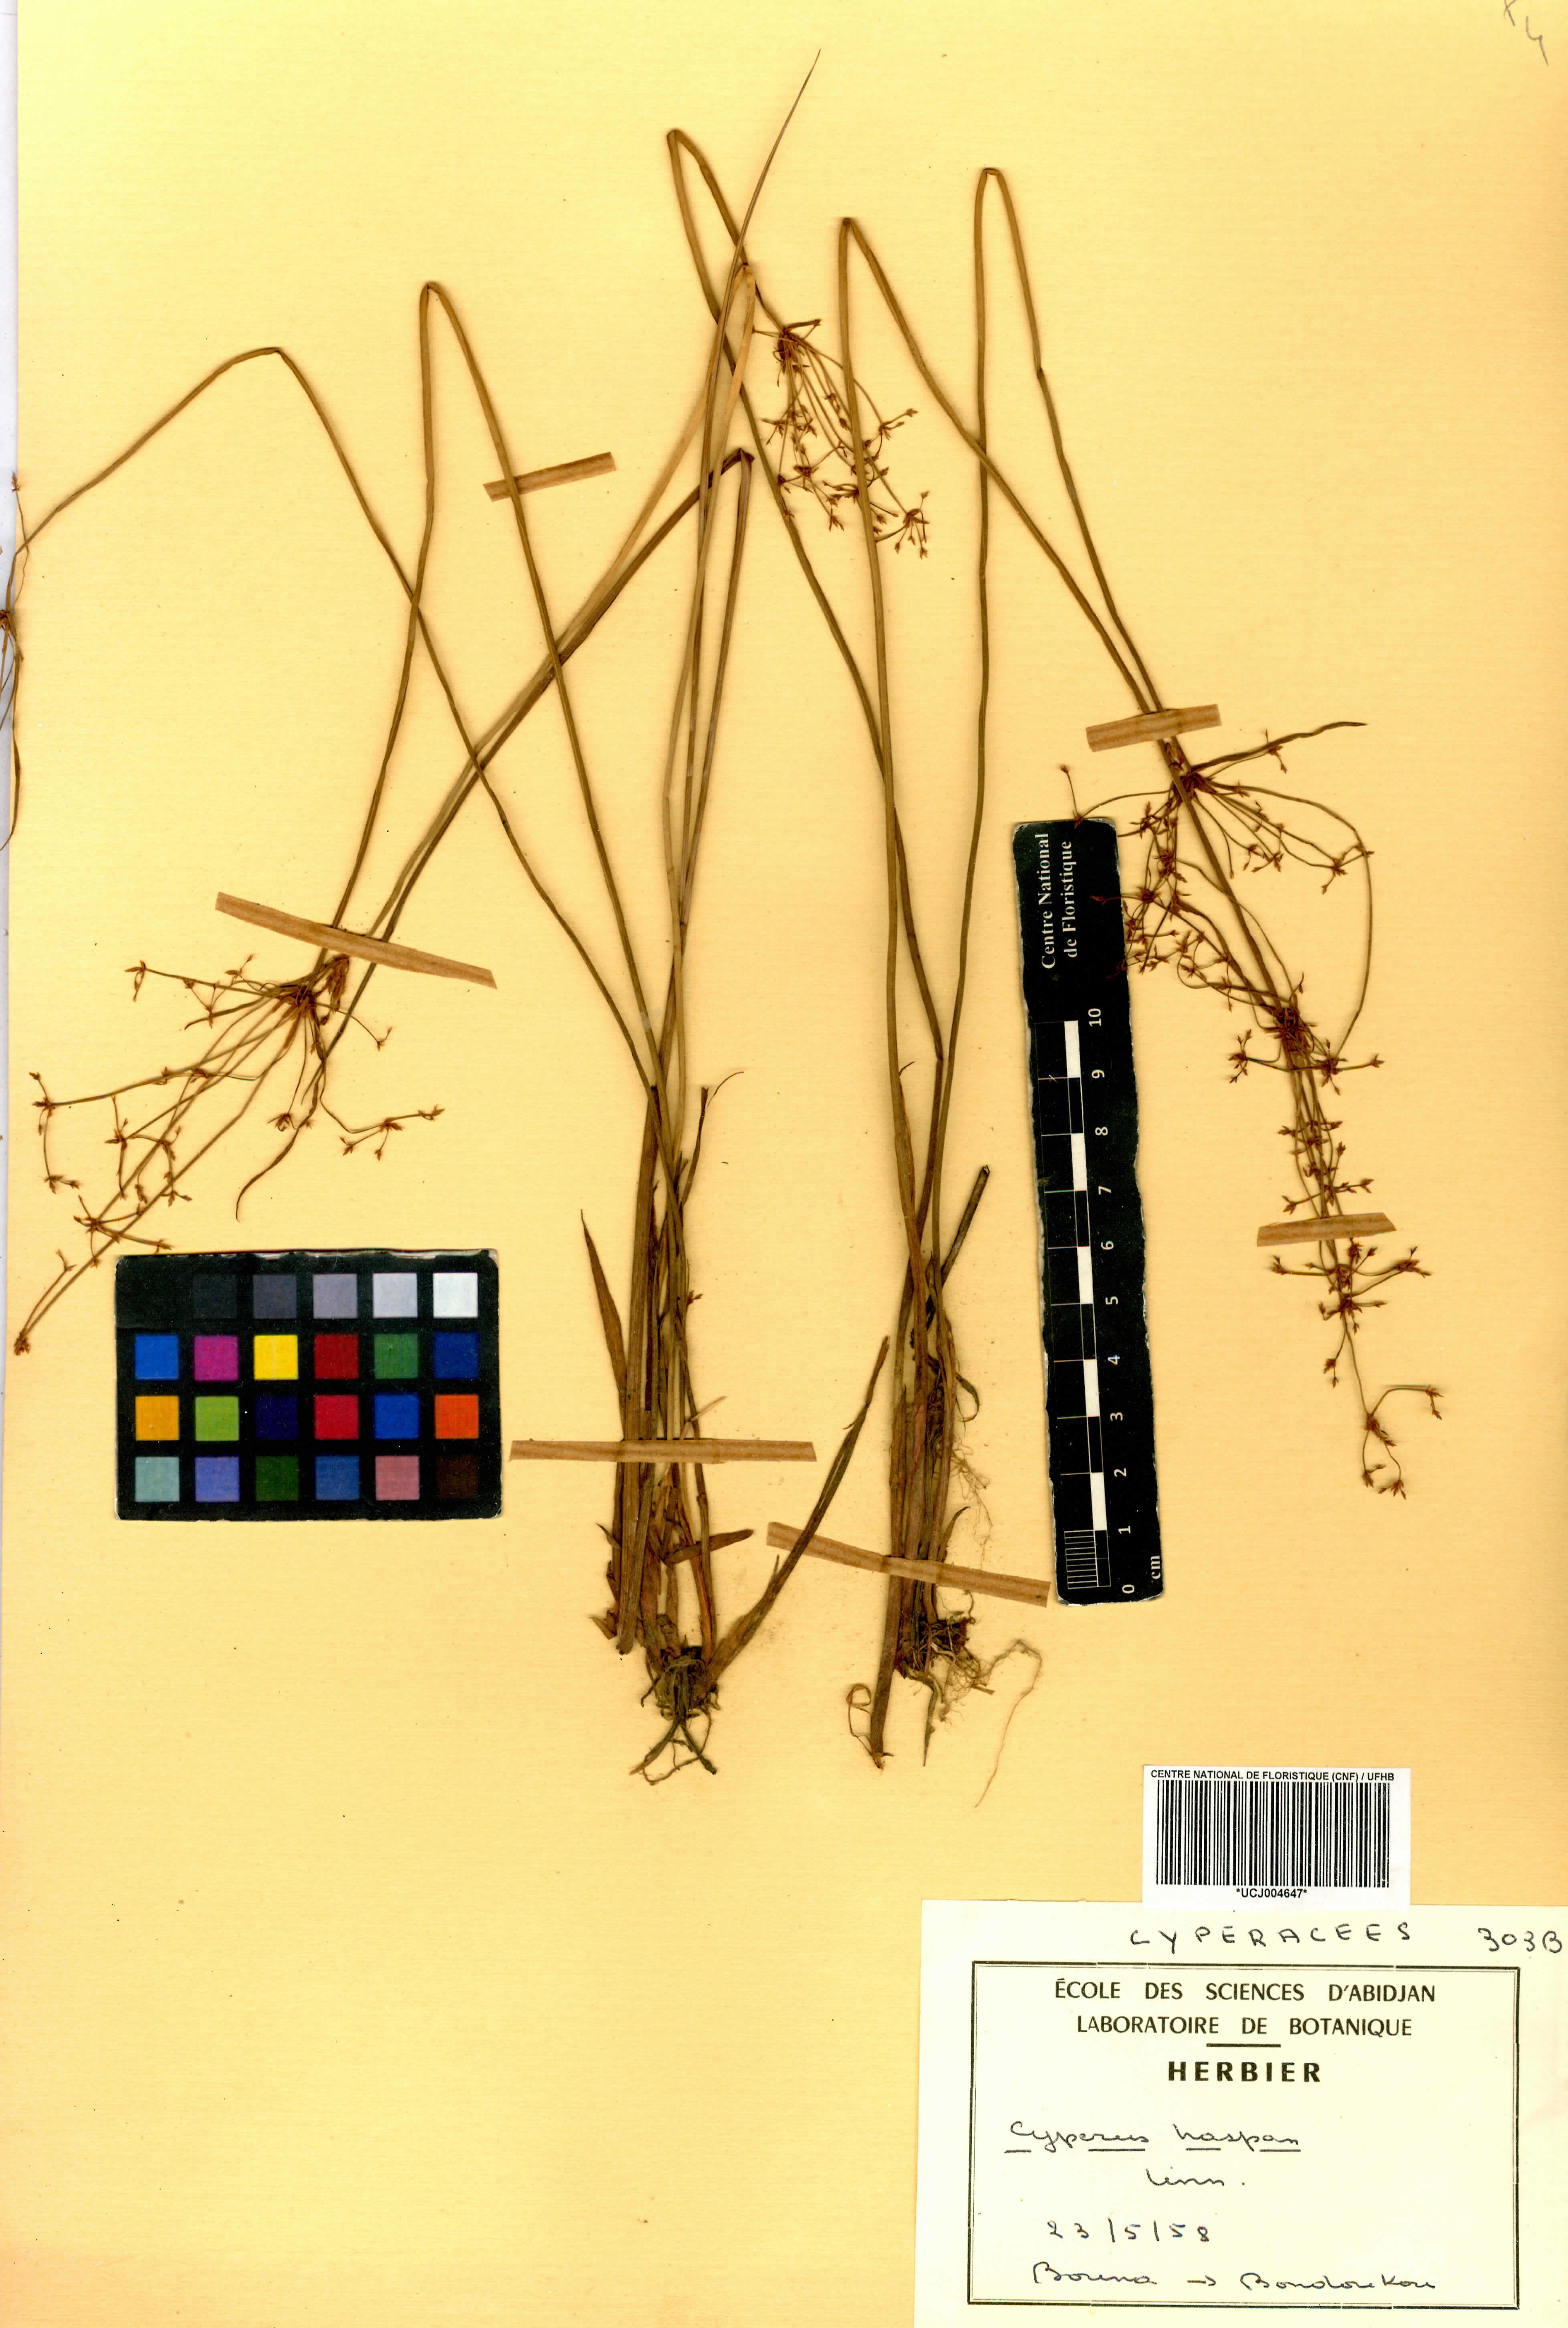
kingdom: Plantae
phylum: Tracheophyta
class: Liliopsida
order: Poales
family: Cyperaceae
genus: Cyperus
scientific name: Cyperus haspan
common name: Haspan flatsedge
